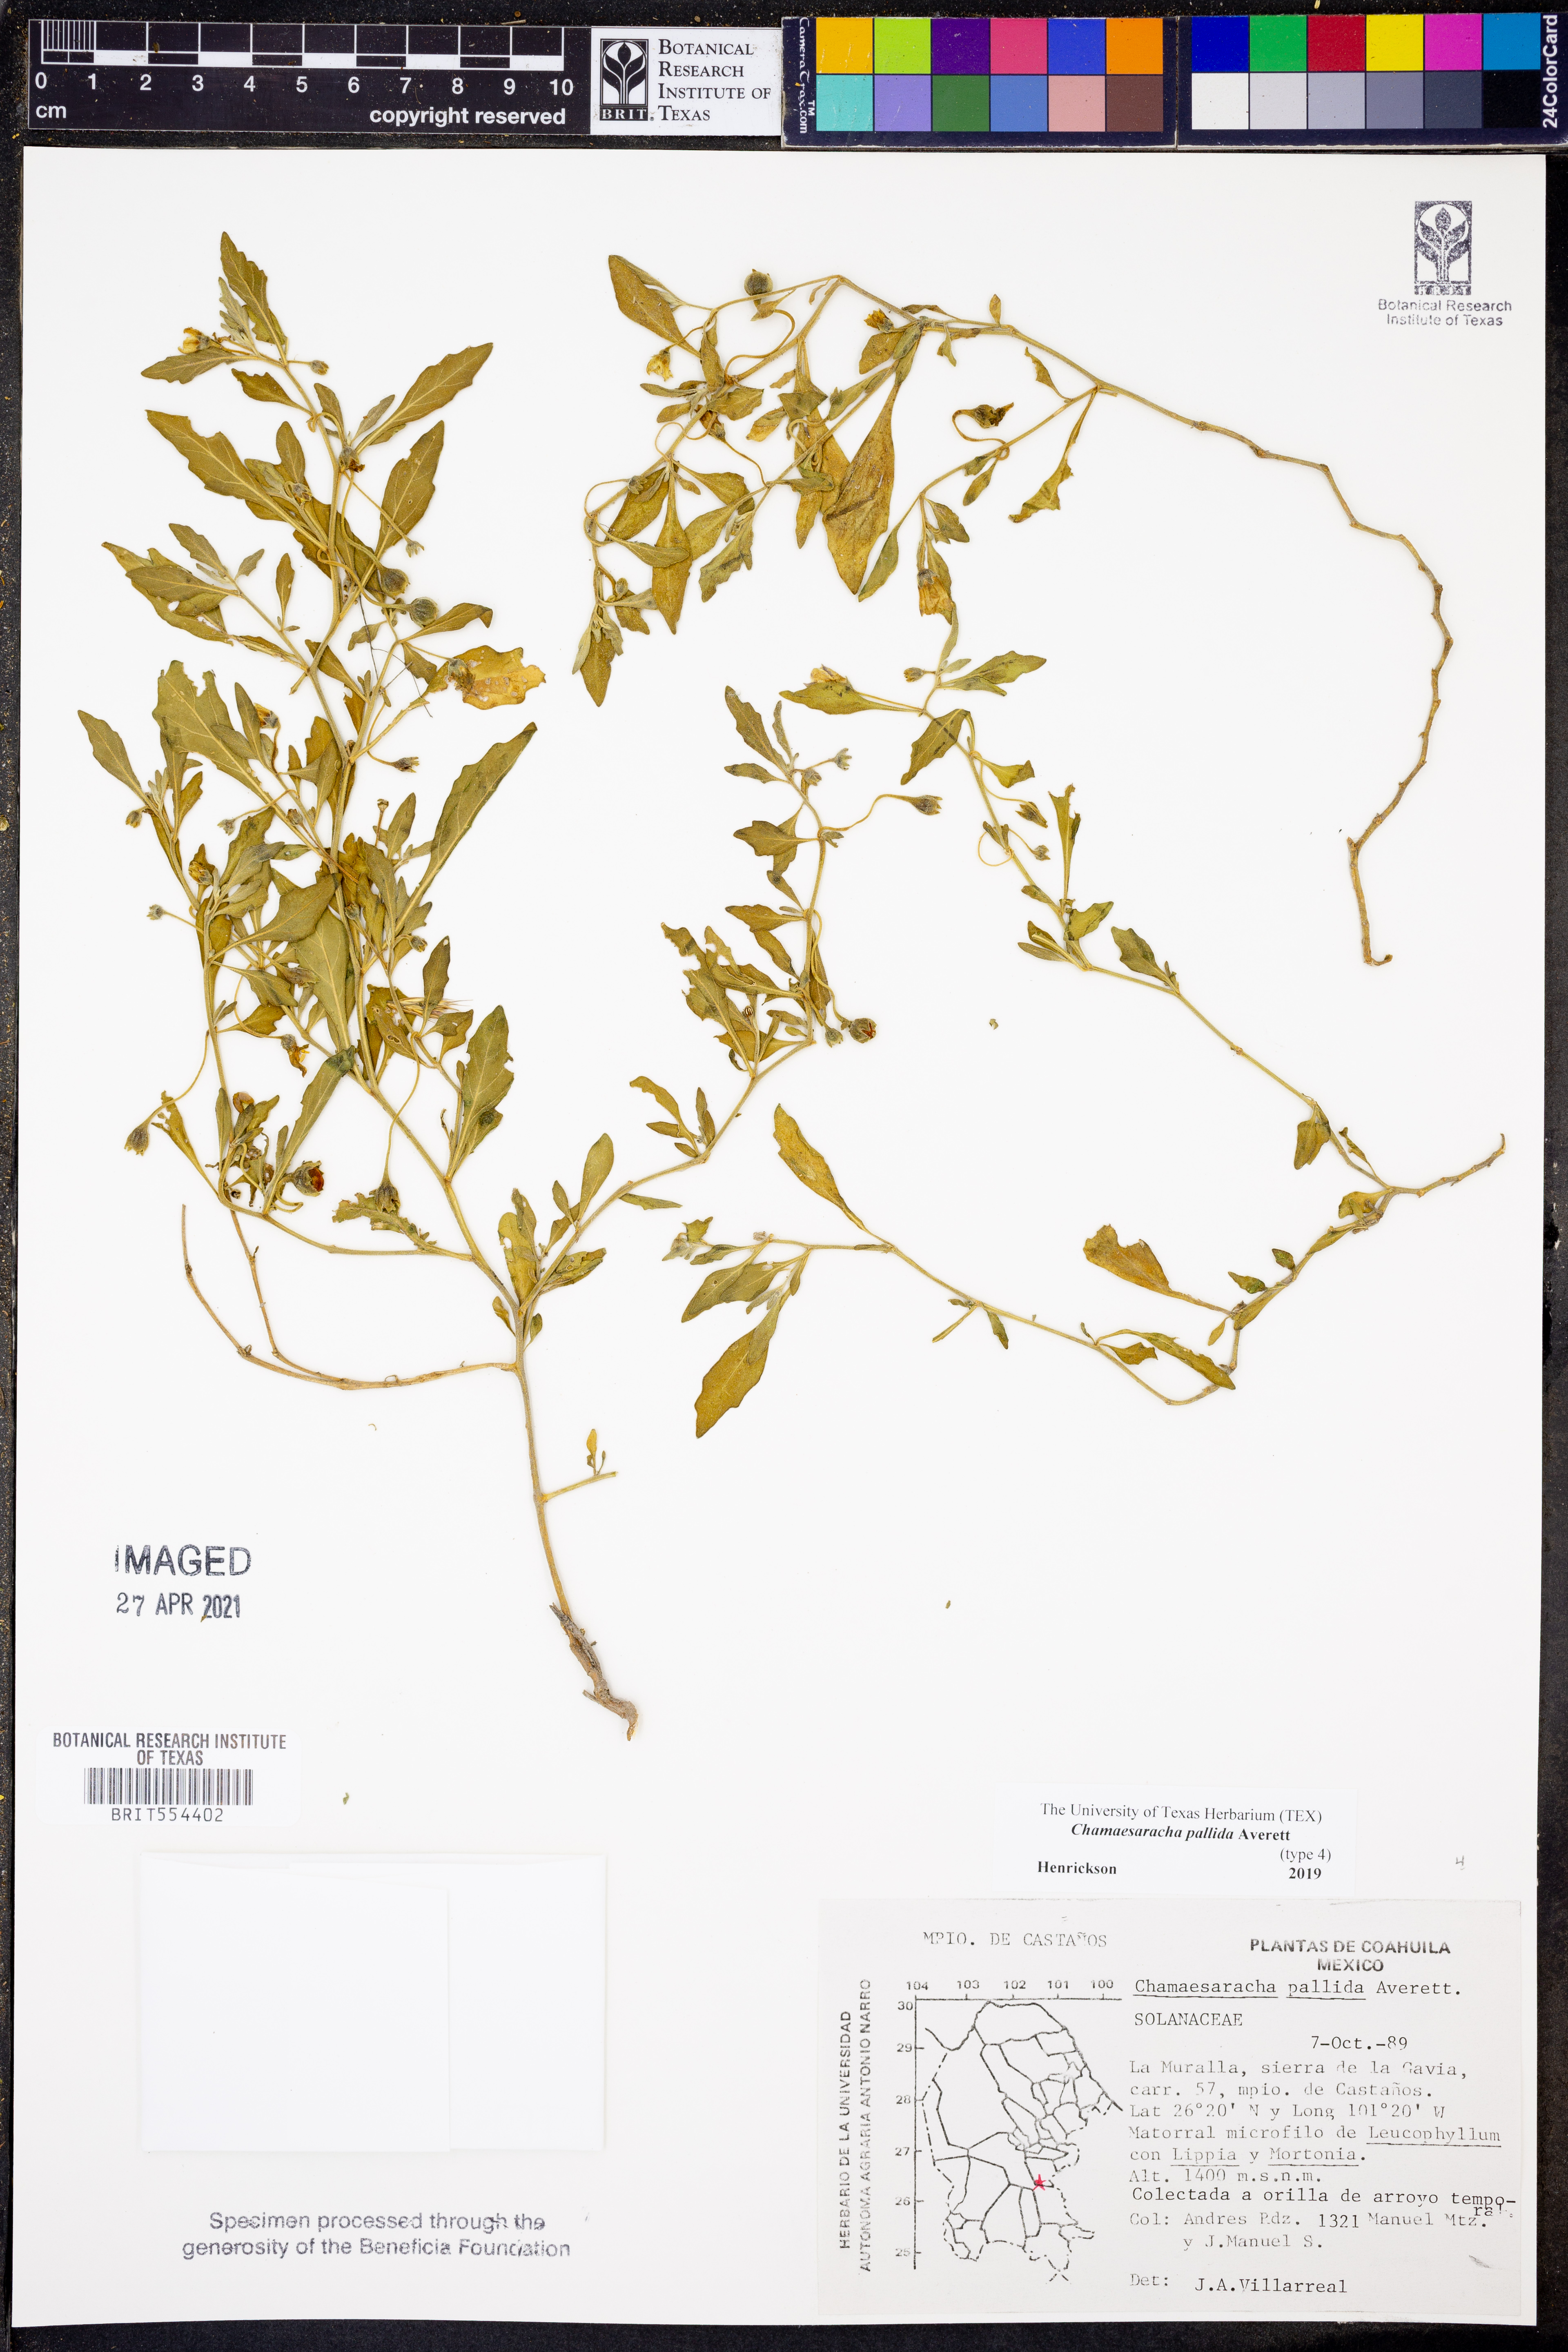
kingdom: Plantae
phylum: Tracheophyta
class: Magnoliopsida
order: Solanales
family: Solanaceae
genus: Chamaesaracha
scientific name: Chamaesaracha pallida
